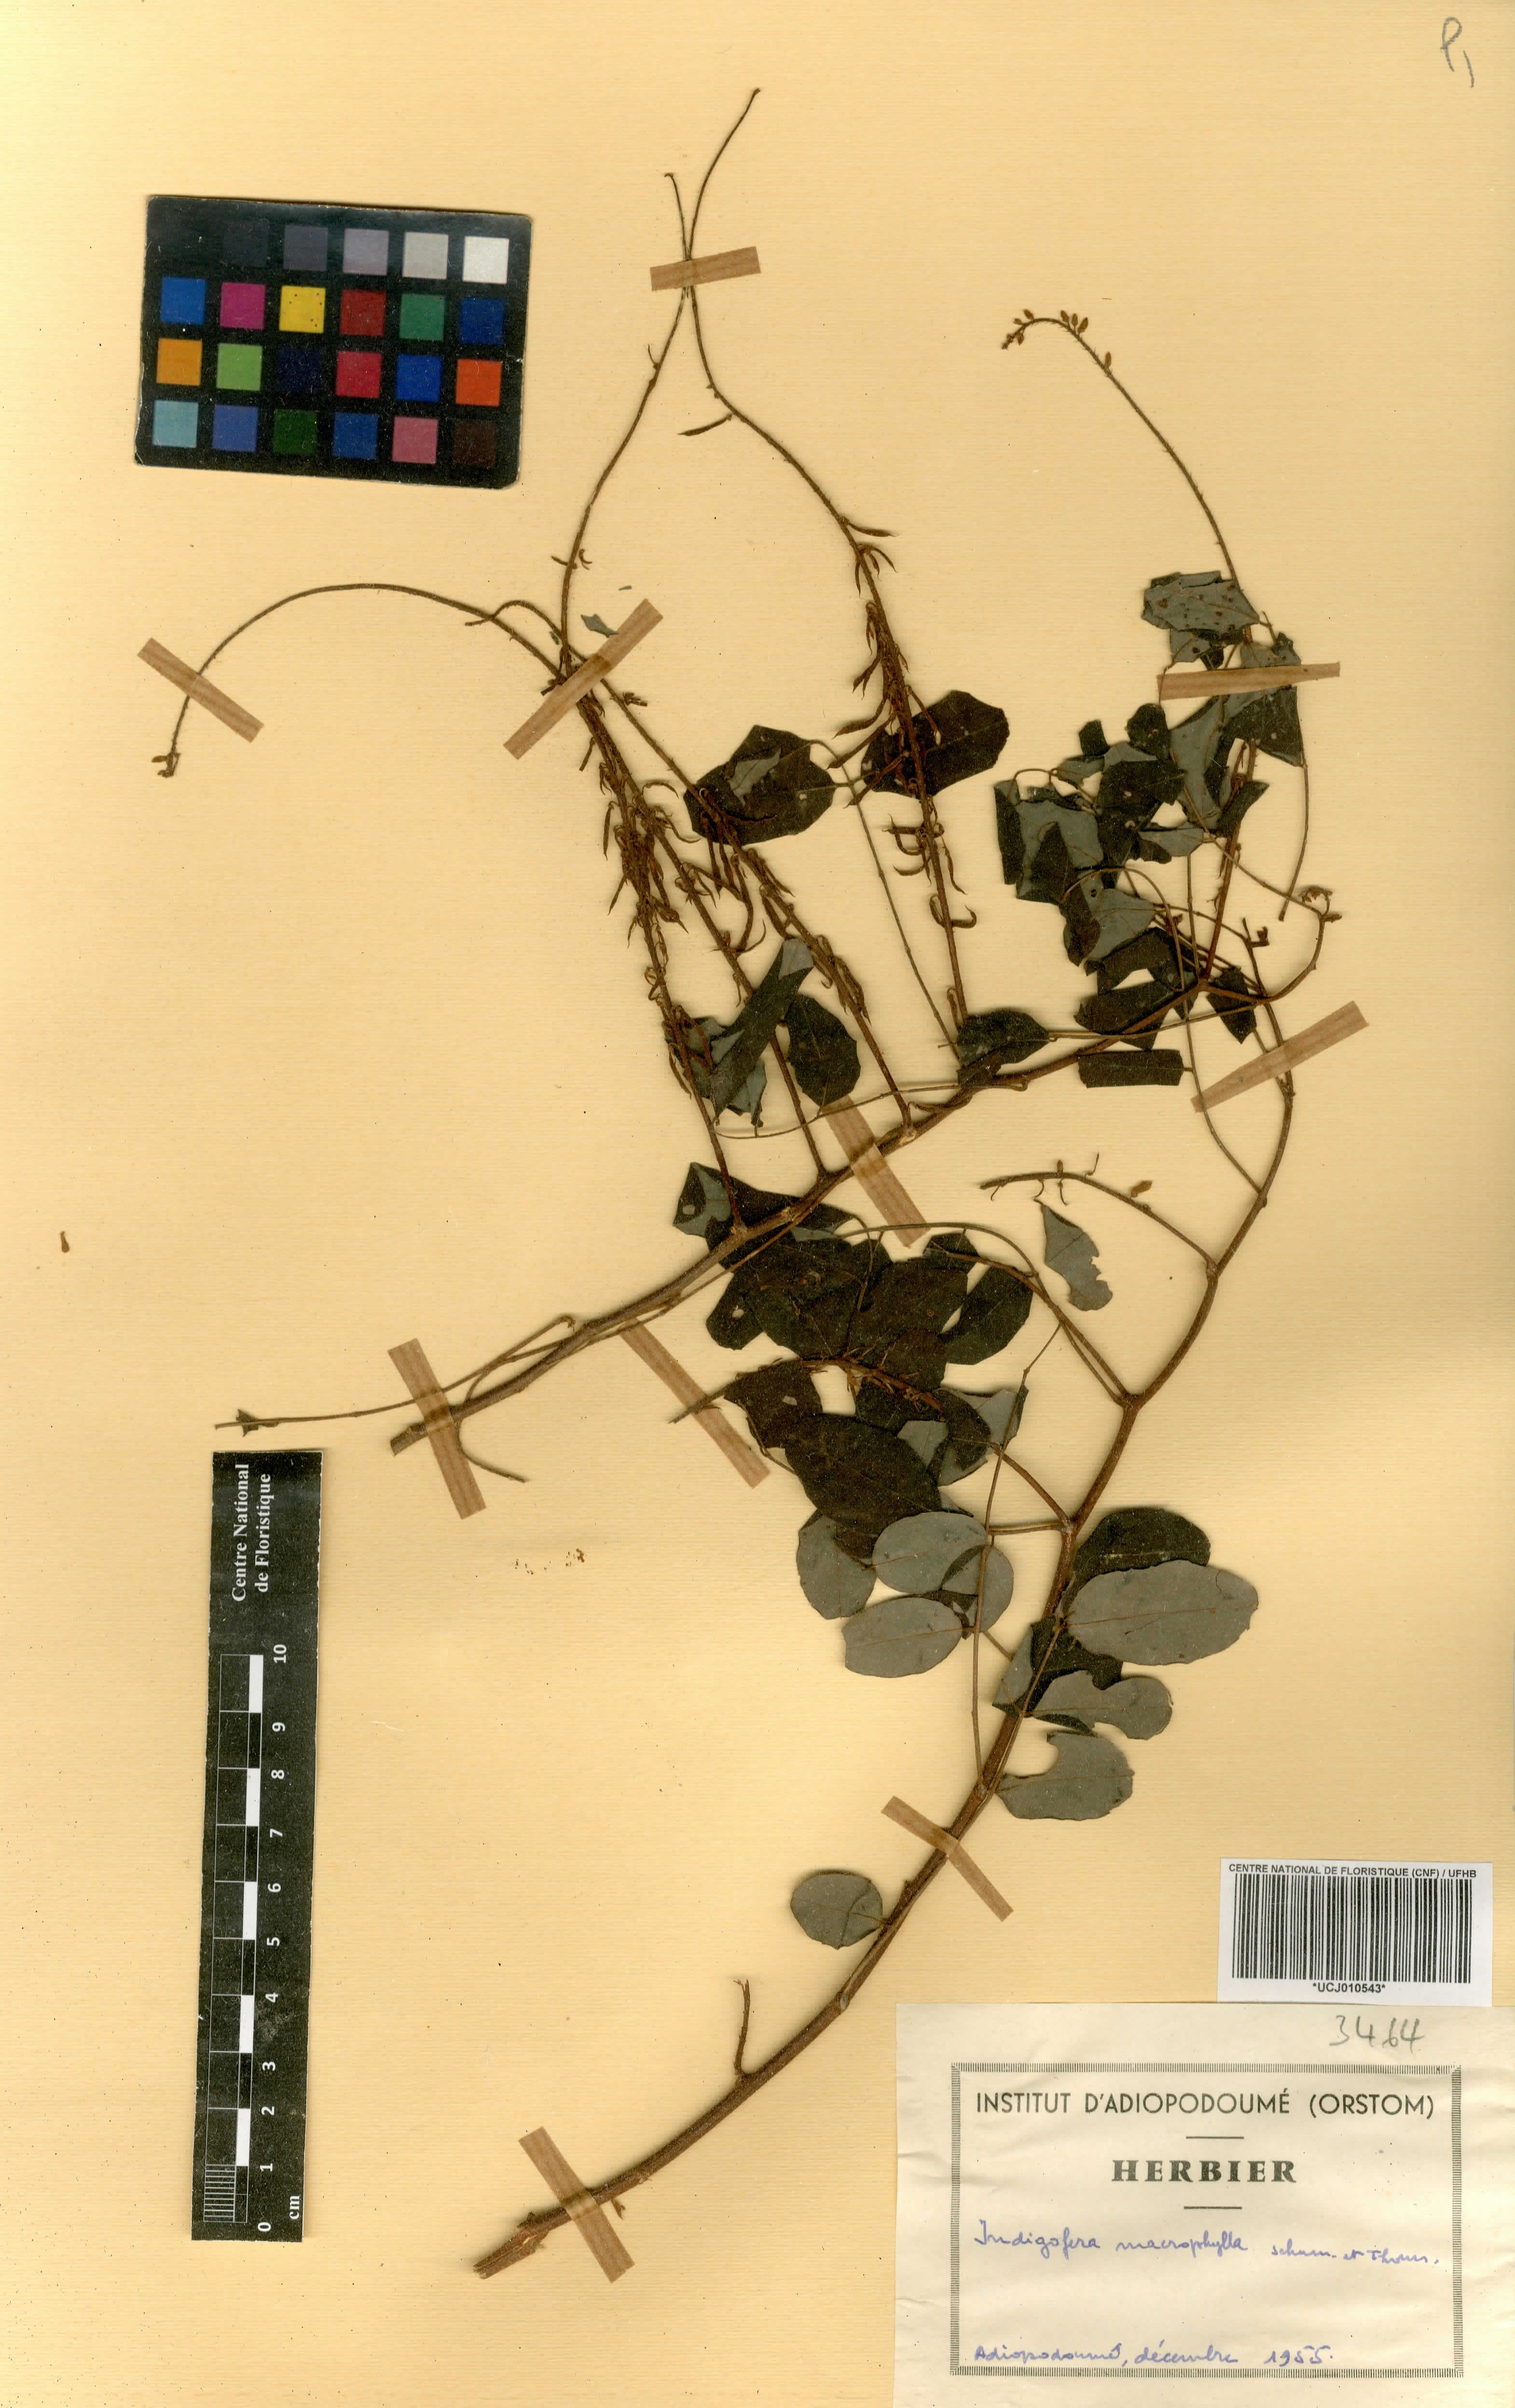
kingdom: Plantae
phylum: Tracheophyta
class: Magnoliopsida
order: Fabales
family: Fabaceae
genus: Indigofera
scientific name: Indigofera macrophylla
